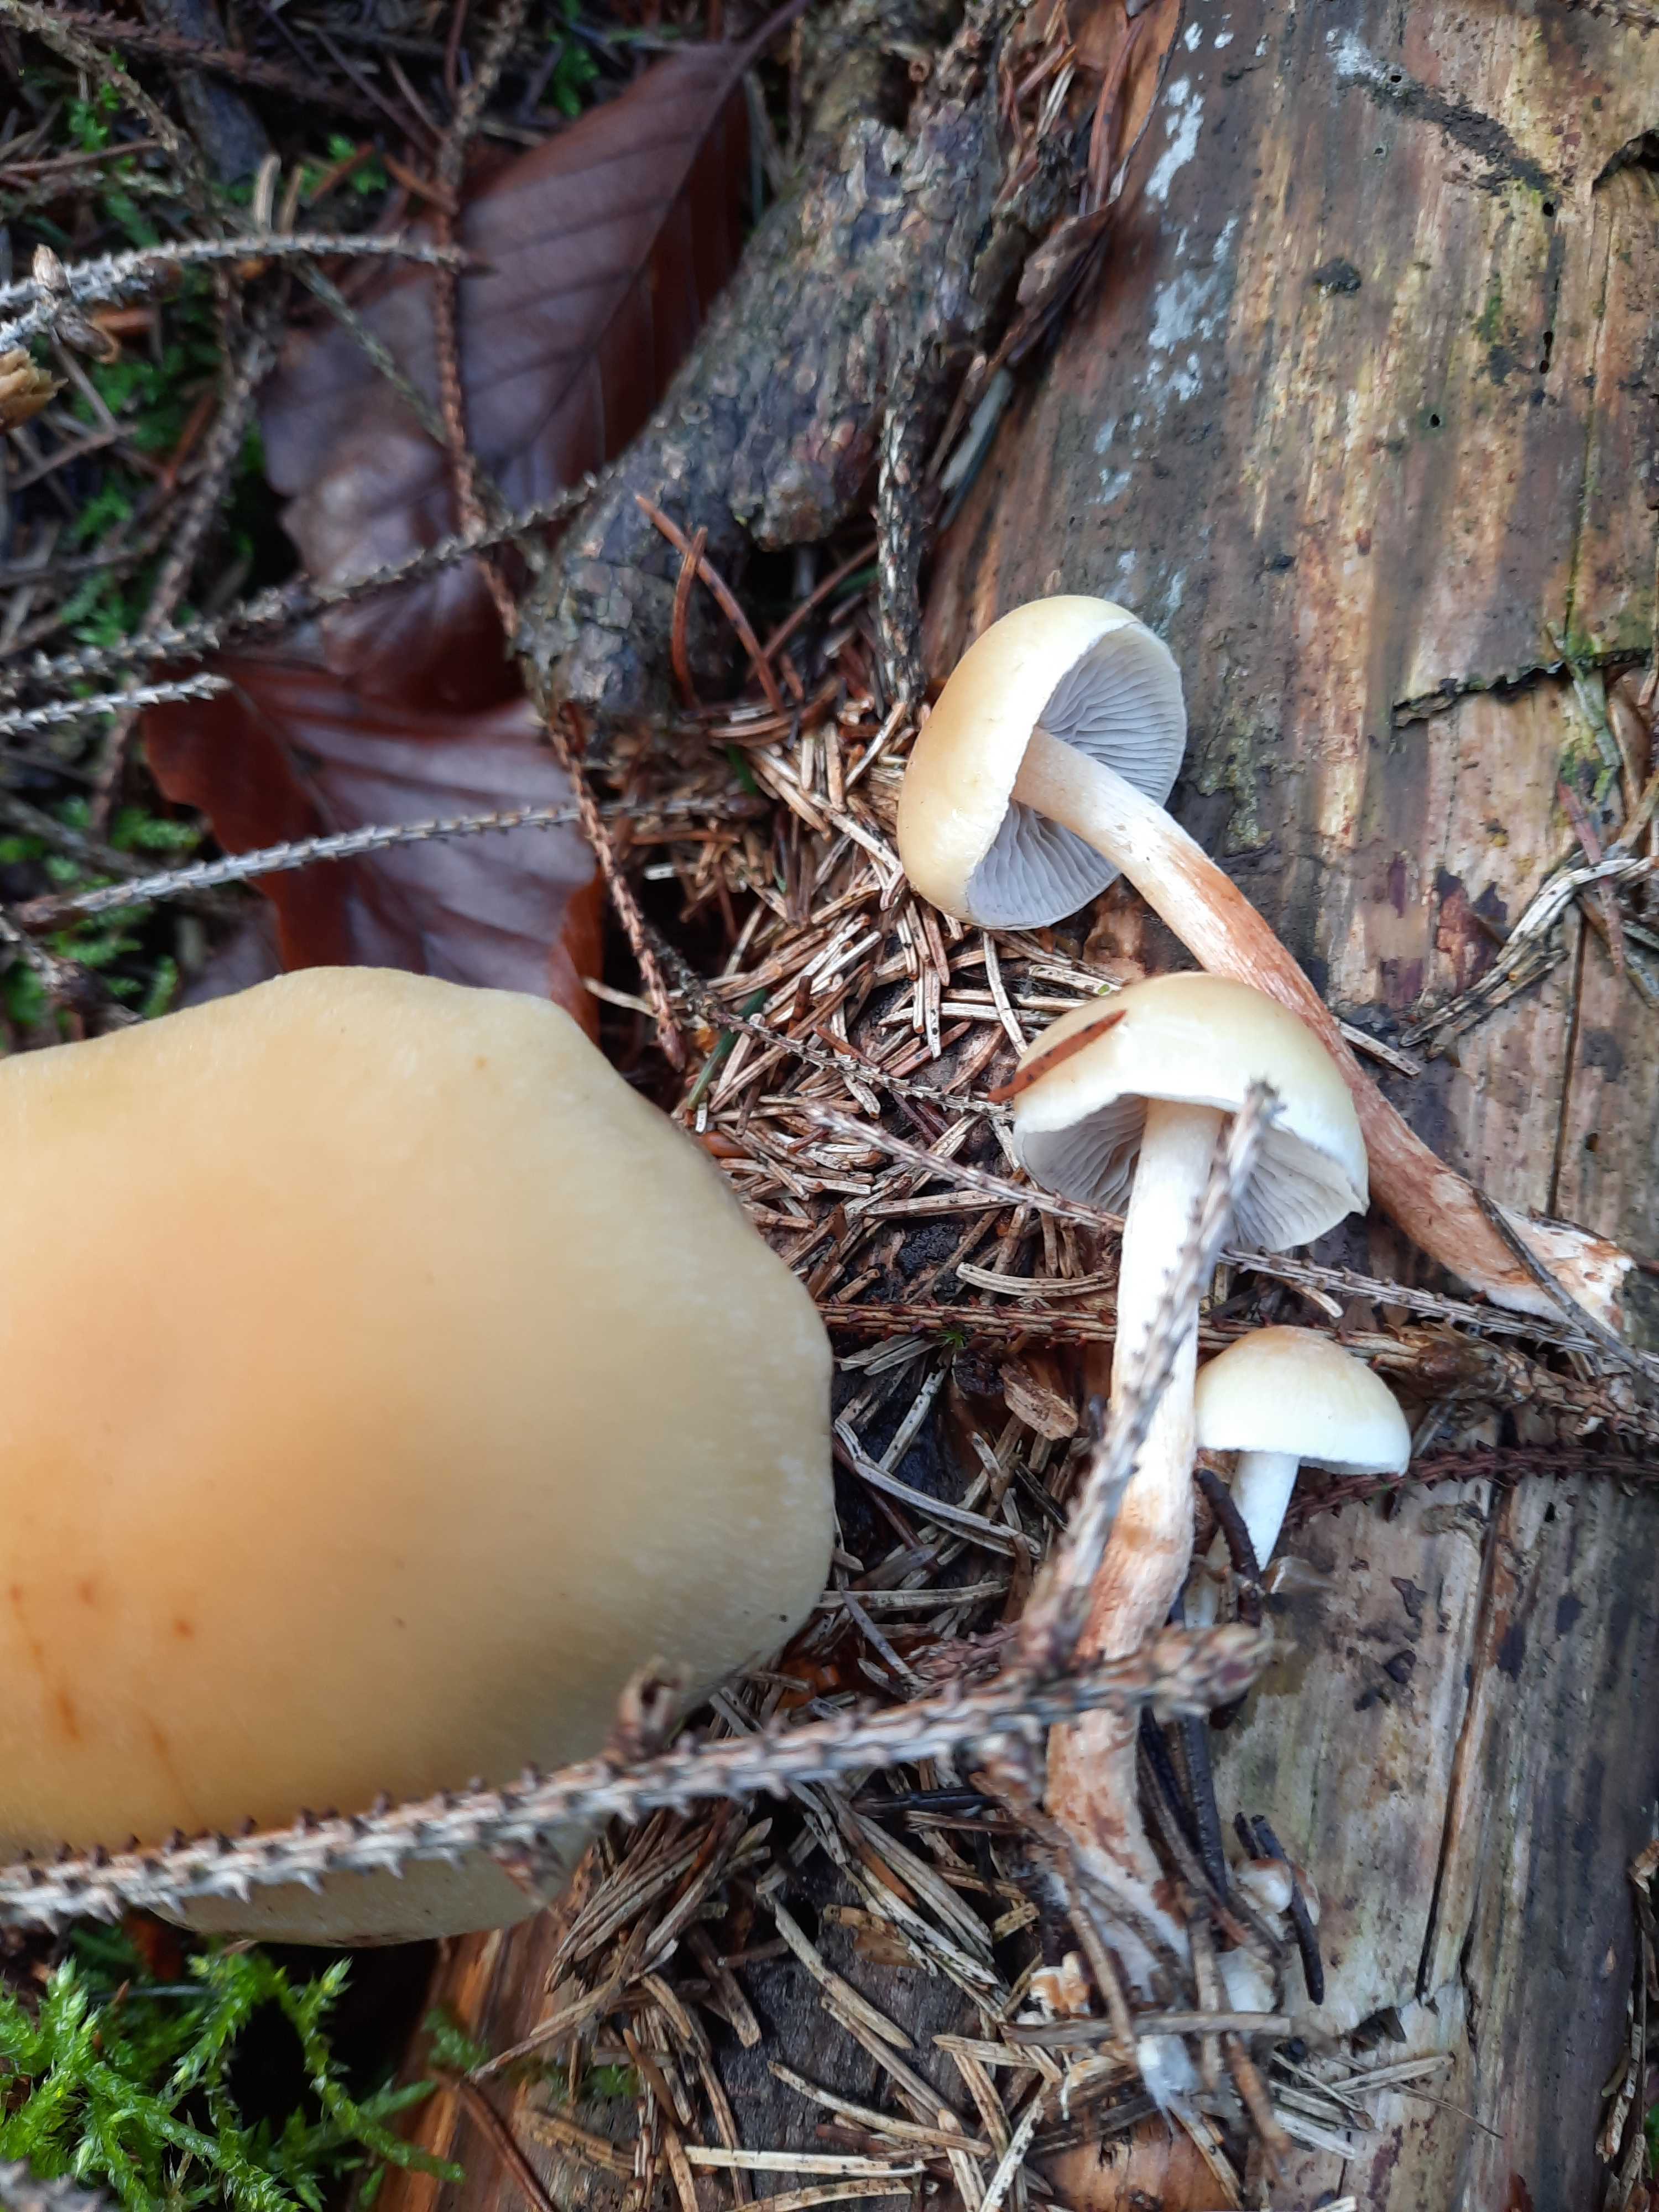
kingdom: Fungi
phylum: Basidiomycota
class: Agaricomycetes
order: Agaricales
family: Strophariaceae
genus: Hypholoma
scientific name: Hypholoma capnoides
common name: gran-svovlhat
